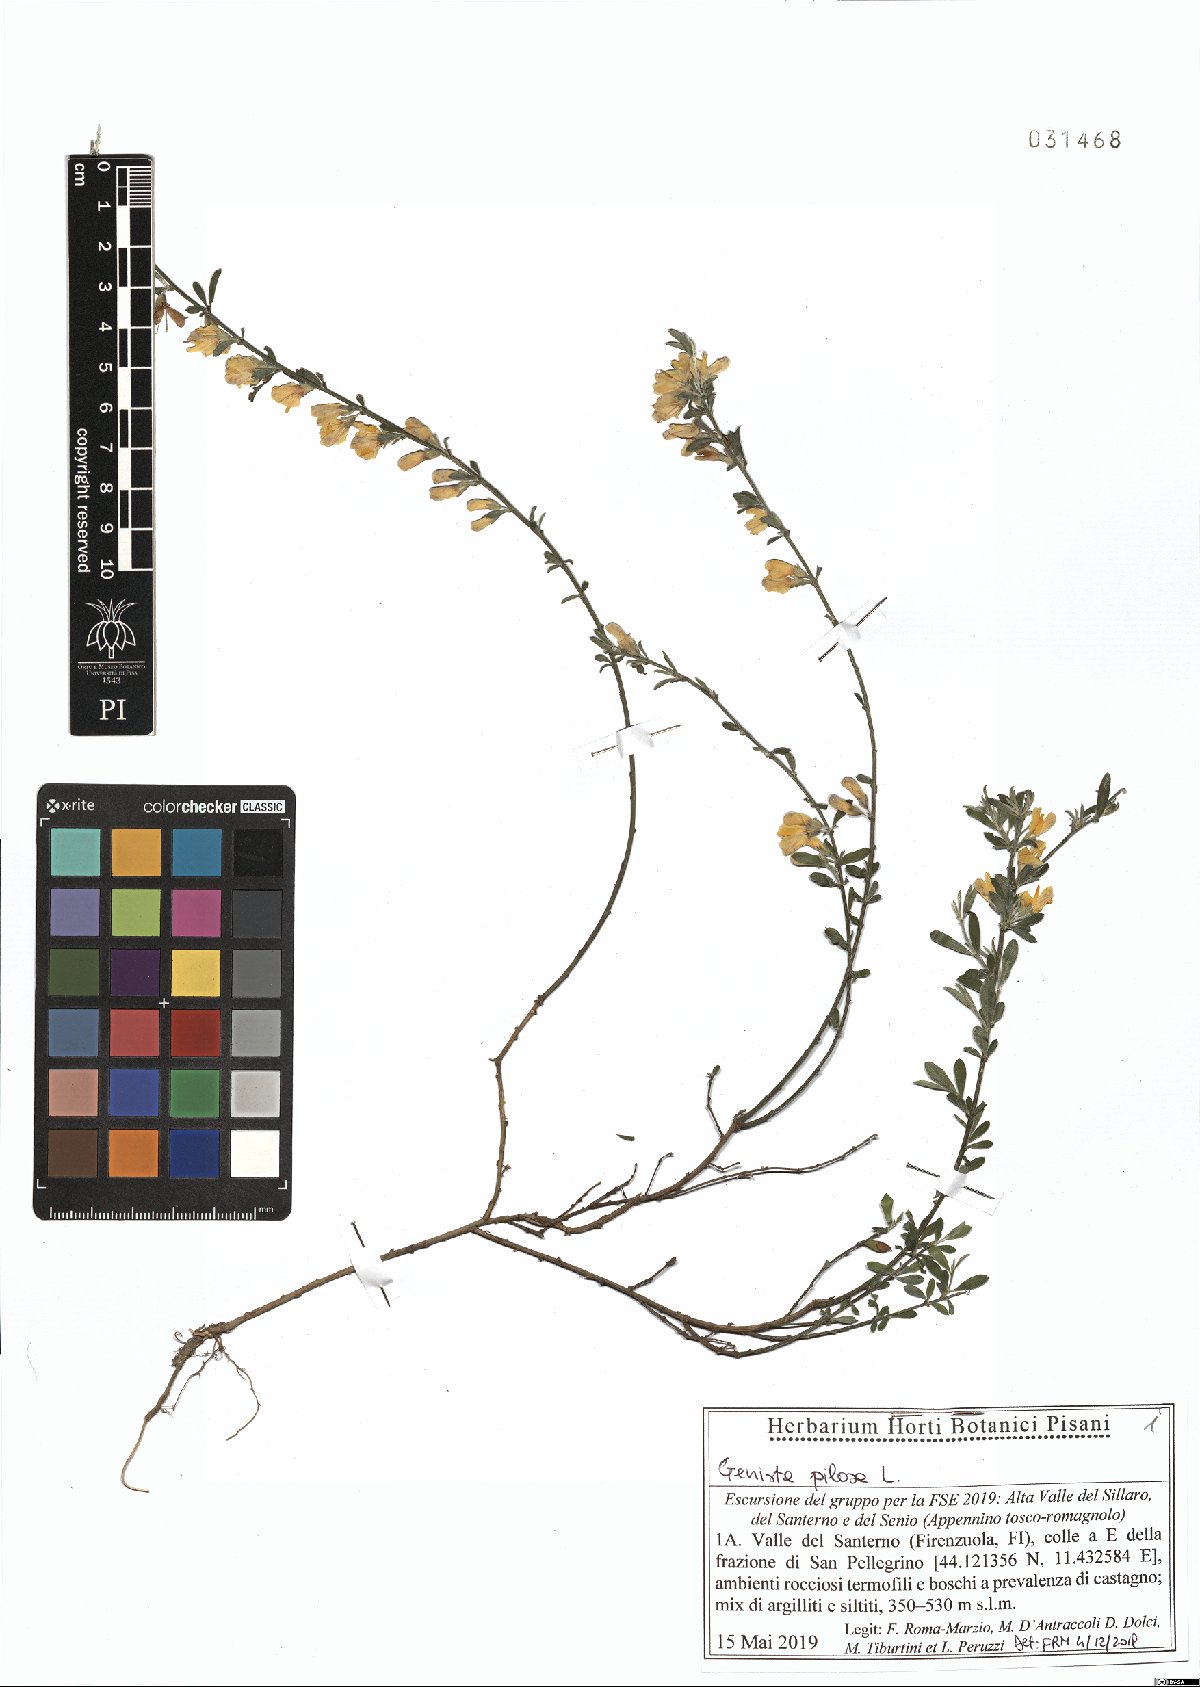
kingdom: Plantae
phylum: Tracheophyta
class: Magnoliopsida
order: Fabales
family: Fabaceae
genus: Genista
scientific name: Genista pilosa
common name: Hairy greenweed
